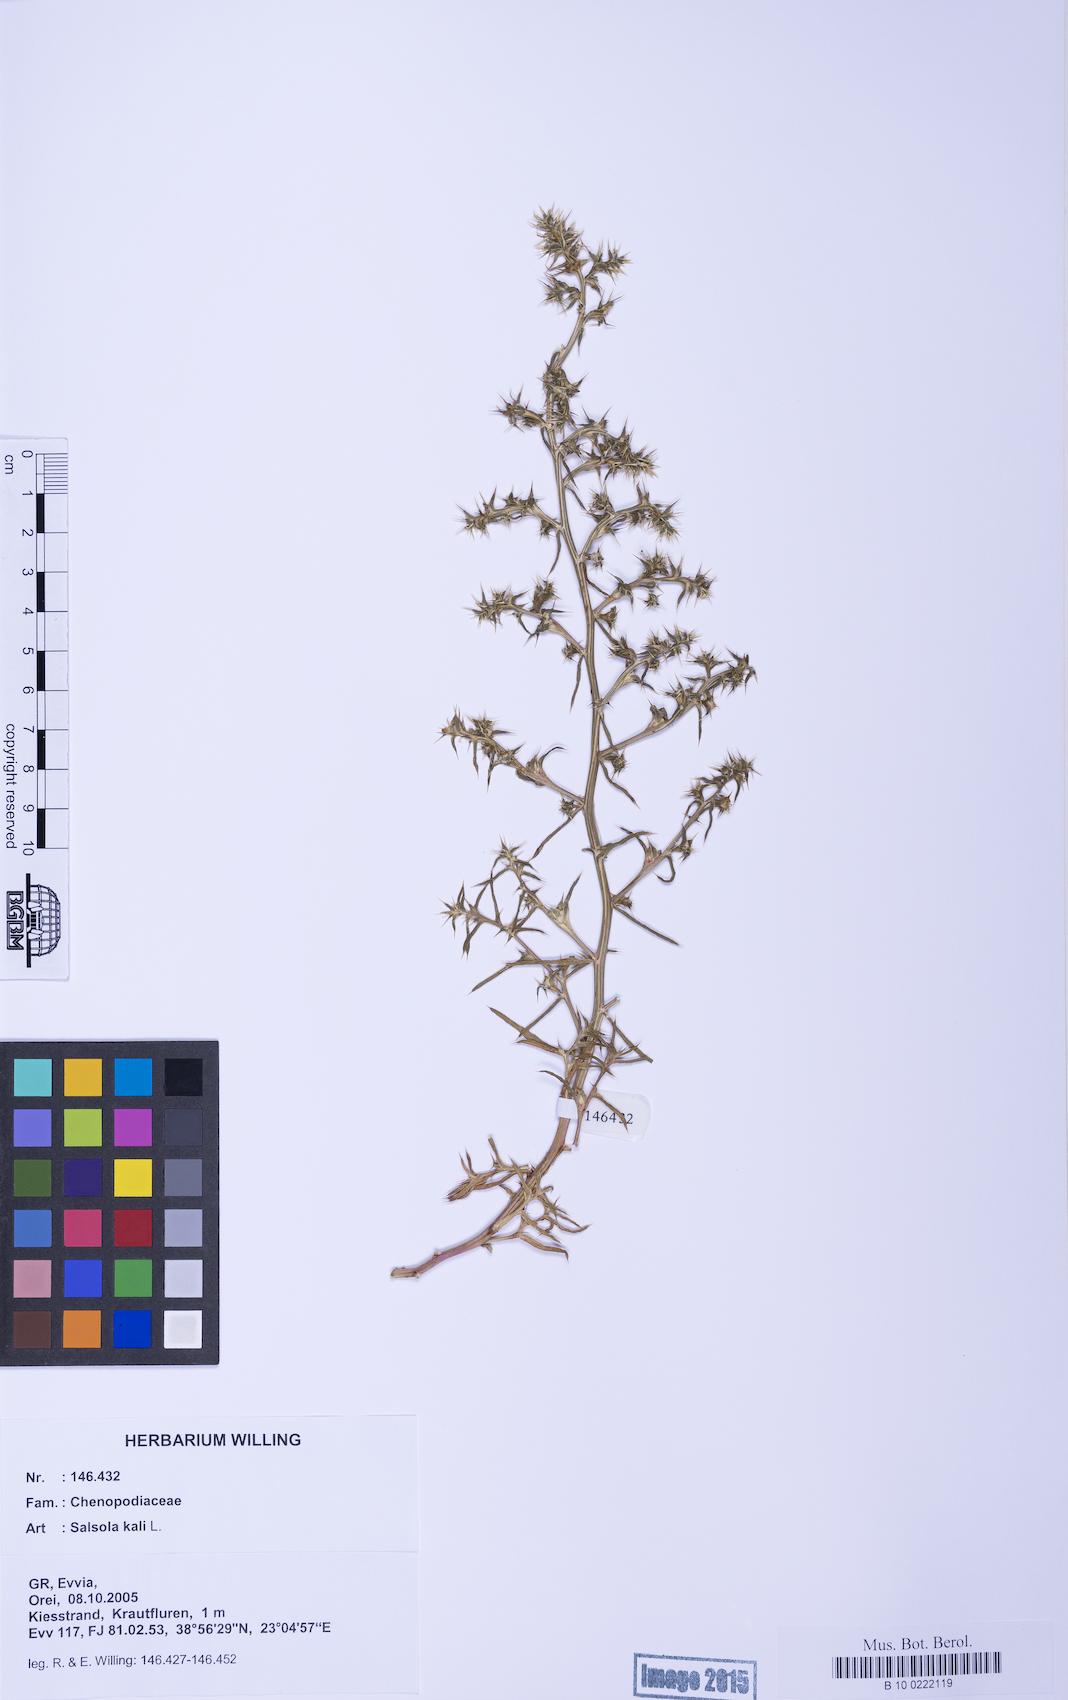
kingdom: Plantae
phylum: Tracheophyta
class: Magnoliopsida
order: Caryophyllales
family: Amaranthaceae
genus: Salsola
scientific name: Salsola kali
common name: Saltwort
